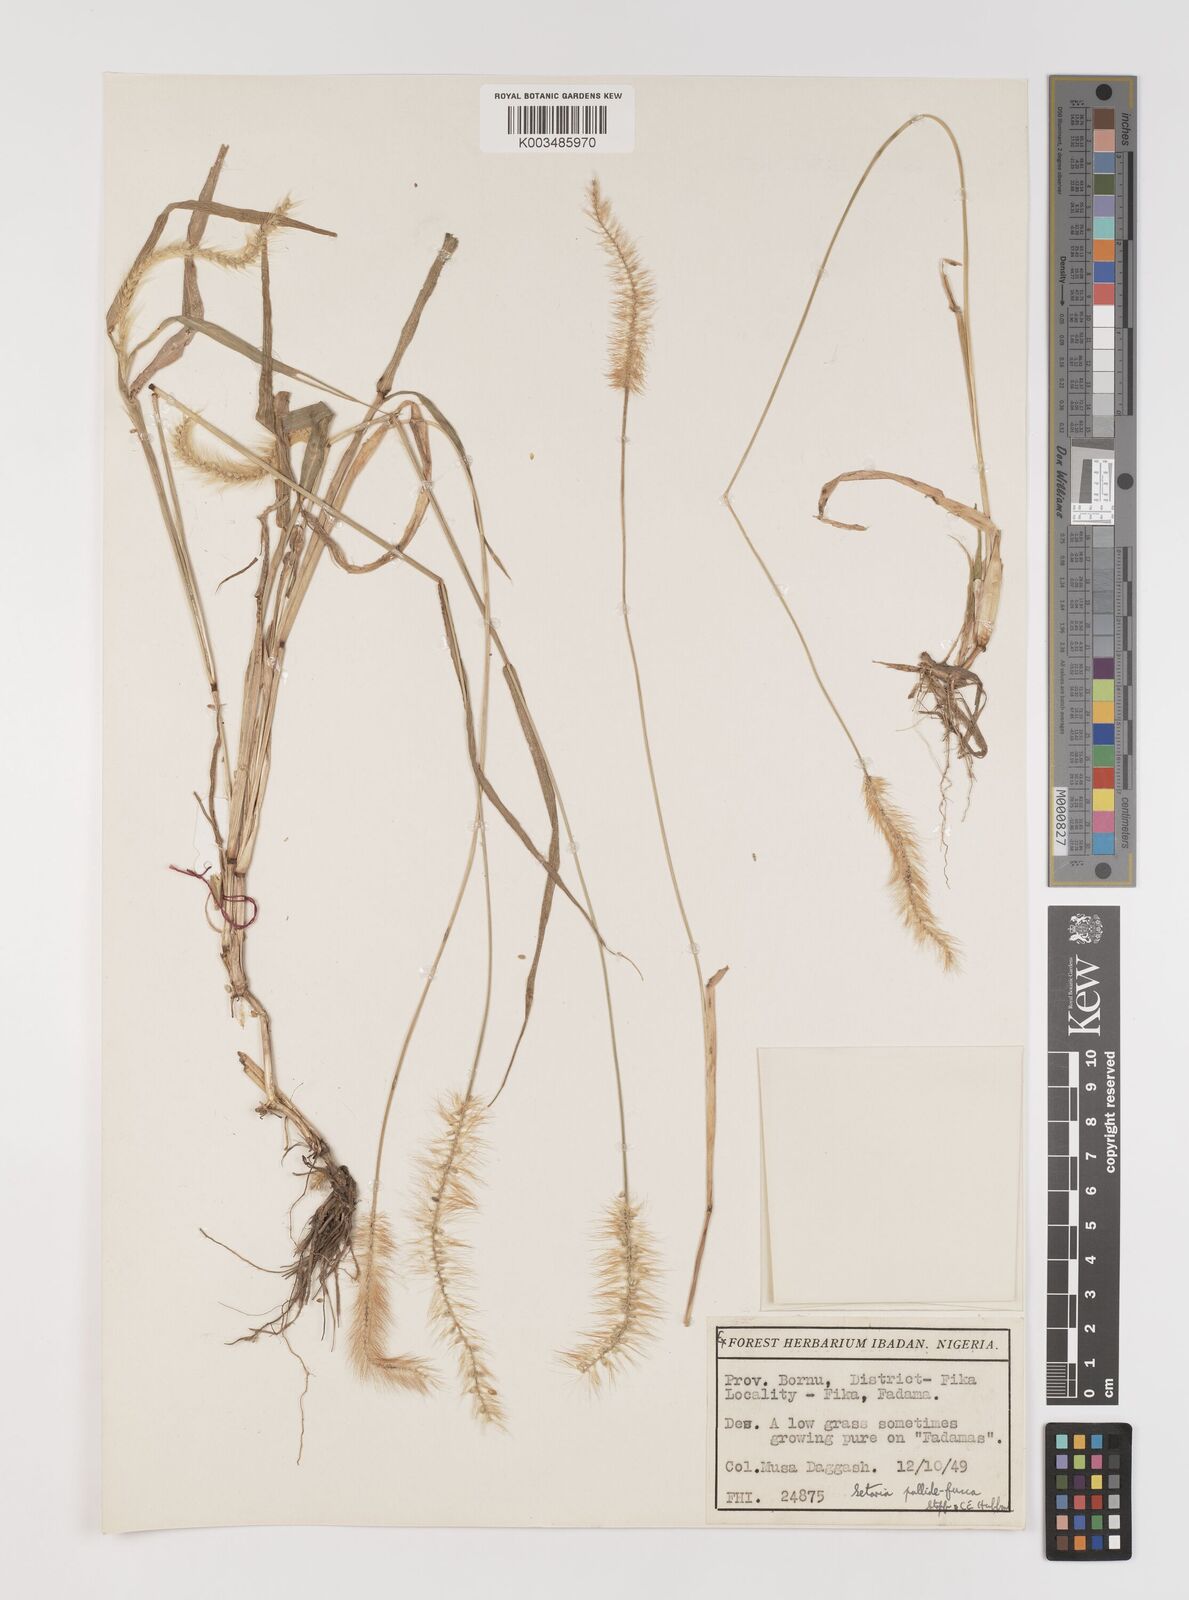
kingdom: Plantae
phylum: Tracheophyta
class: Liliopsida
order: Poales
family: Poaceae
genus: Setaria
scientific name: Setaria pumila
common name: Yellow bristle-grass
